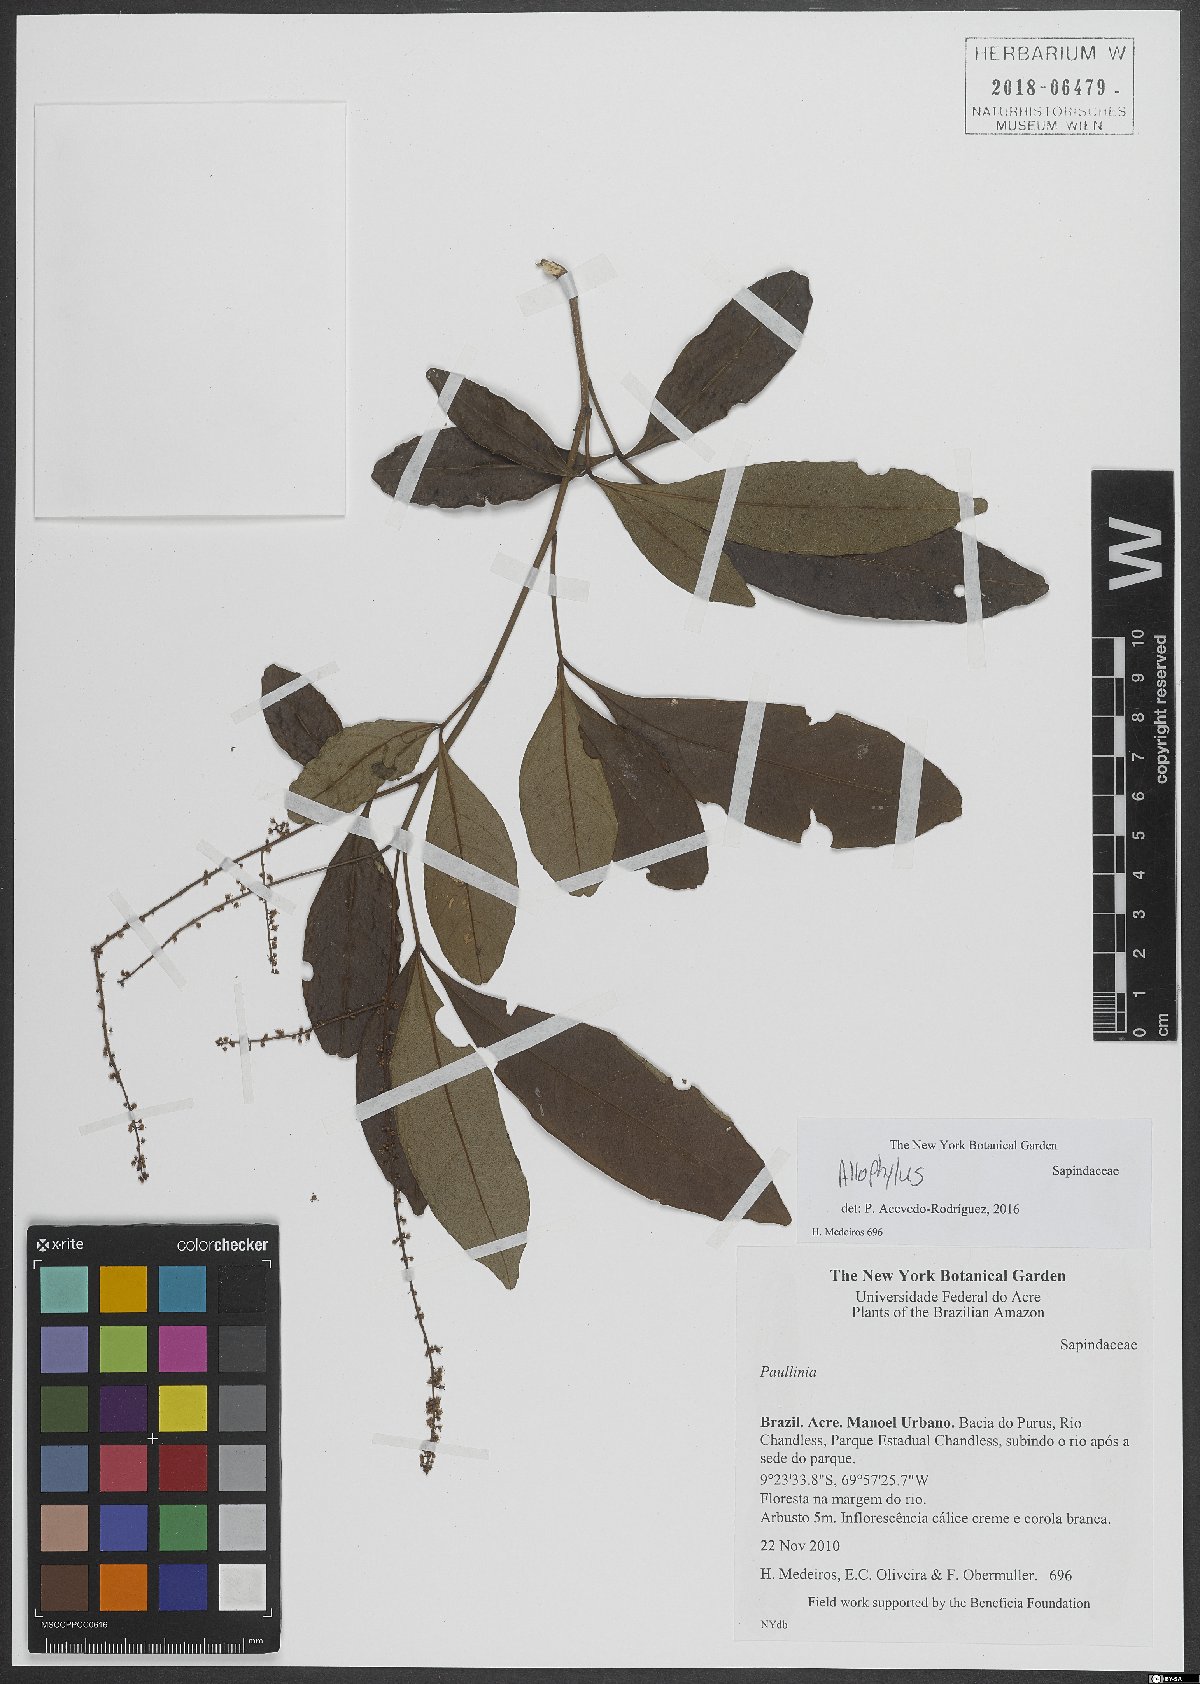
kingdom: Plantae
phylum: Tracheophyta
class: Magnoliopsida
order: Sapindales
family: Sapindaceae
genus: Allophylus
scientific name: Allophylus
